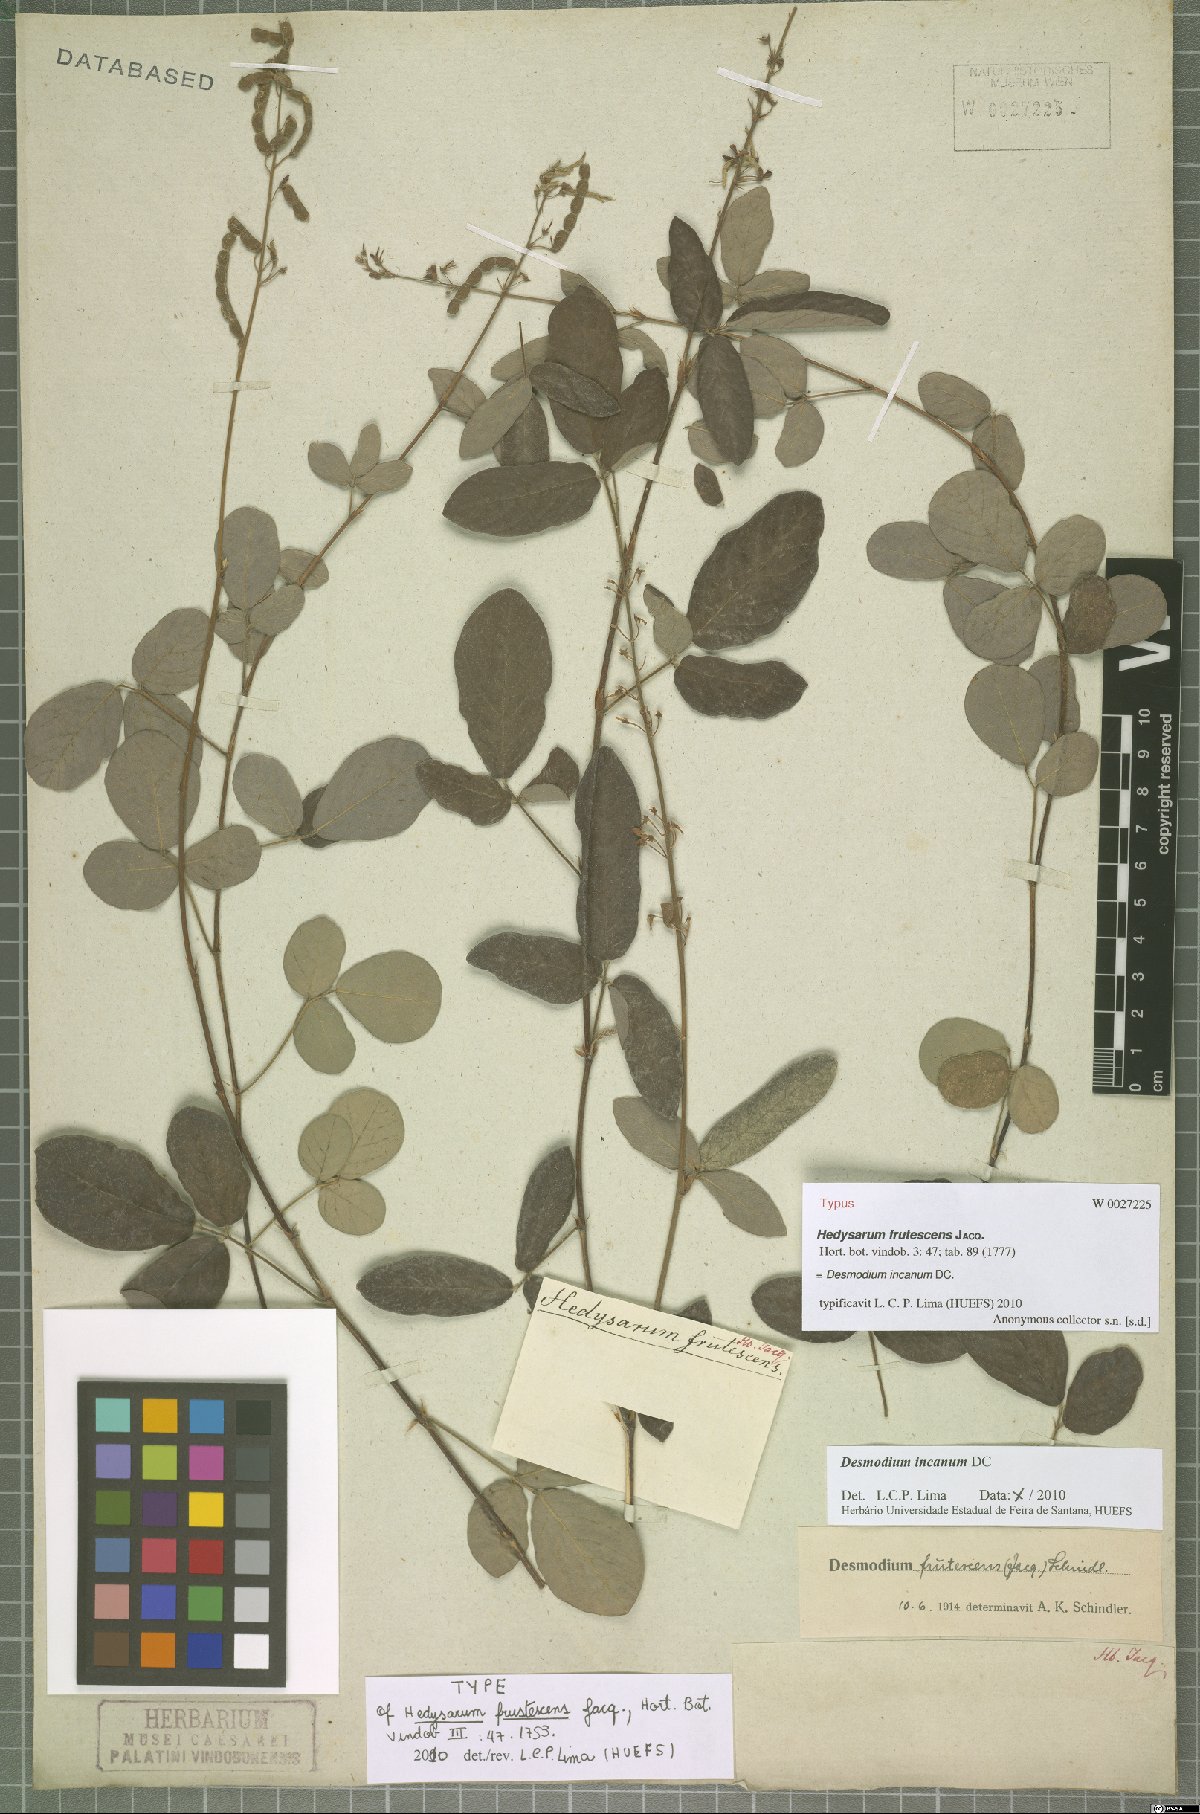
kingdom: Plantae
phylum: Tracheophyta
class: Magnoliopsida
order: Fabales
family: Fabaceae
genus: Desmodium
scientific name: Desmodium incanum
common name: Tickclover
